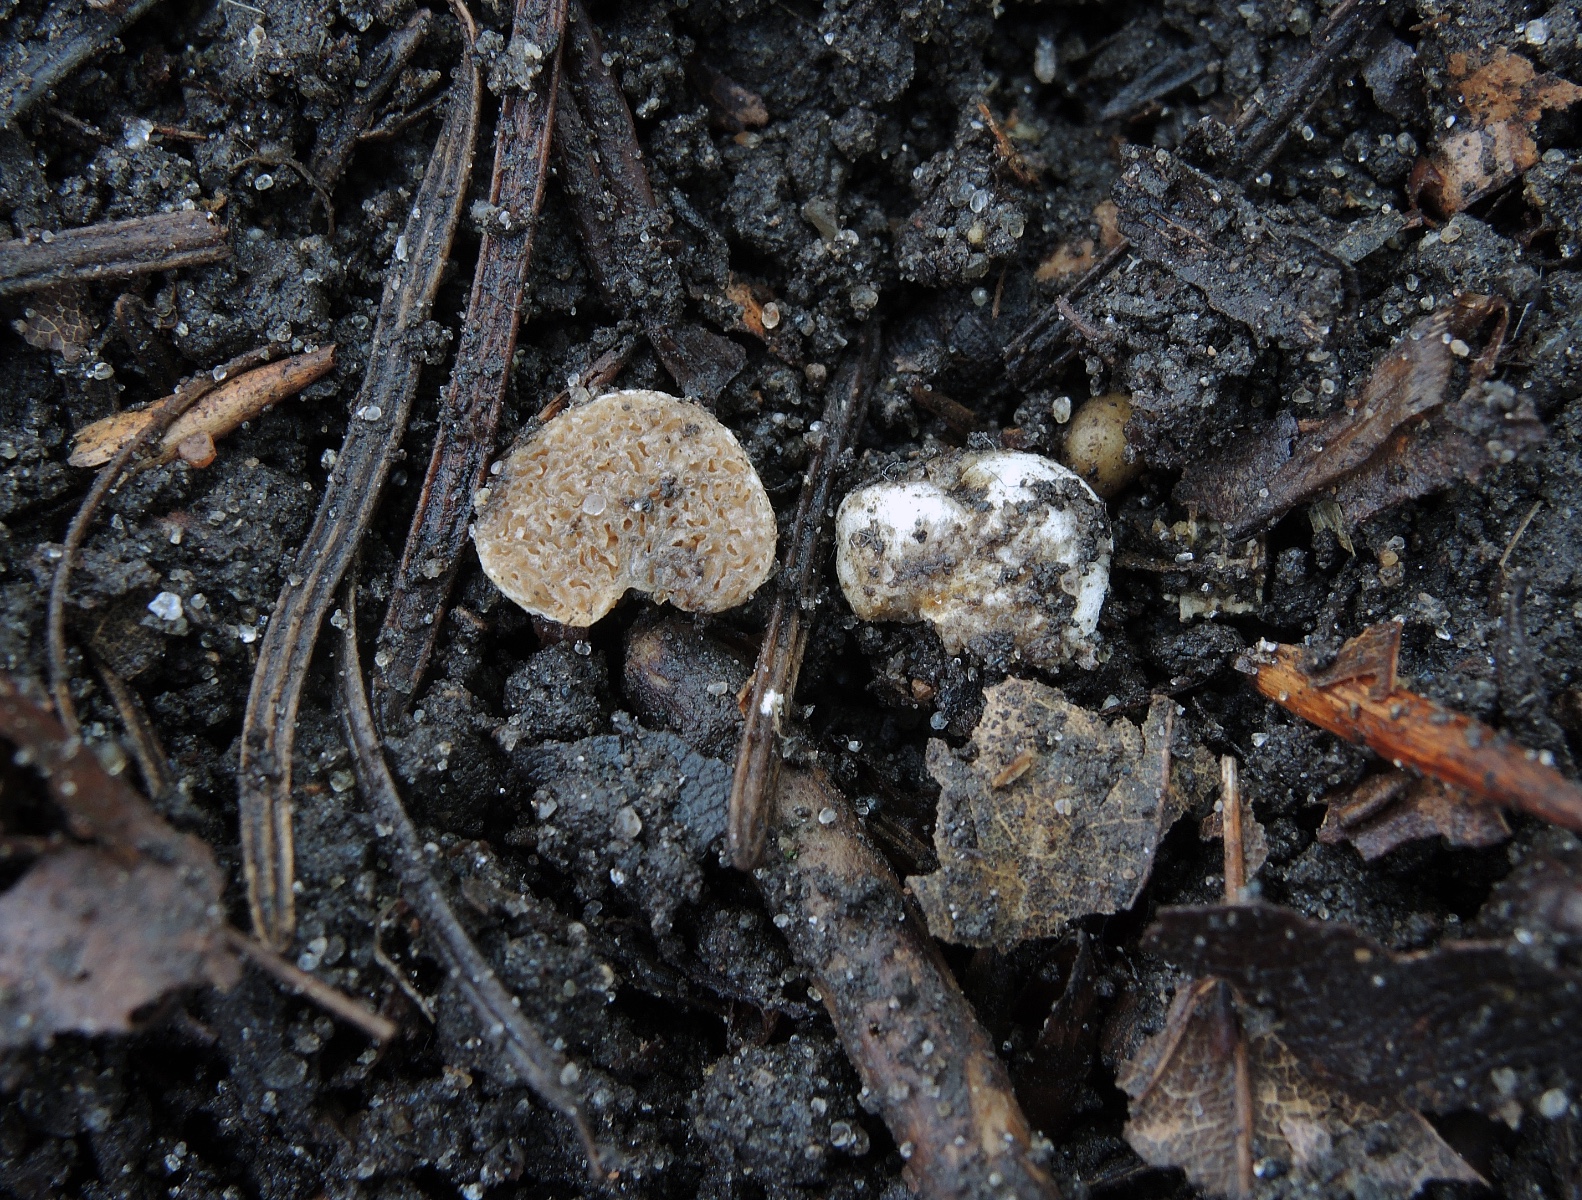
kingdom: Fungi
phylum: Basidiomycota
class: Agaricomycetes
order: Agaricales
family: Hymenogastraceae
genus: Hymenogaster
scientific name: Hymenogaster
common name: knoldtrøffel
